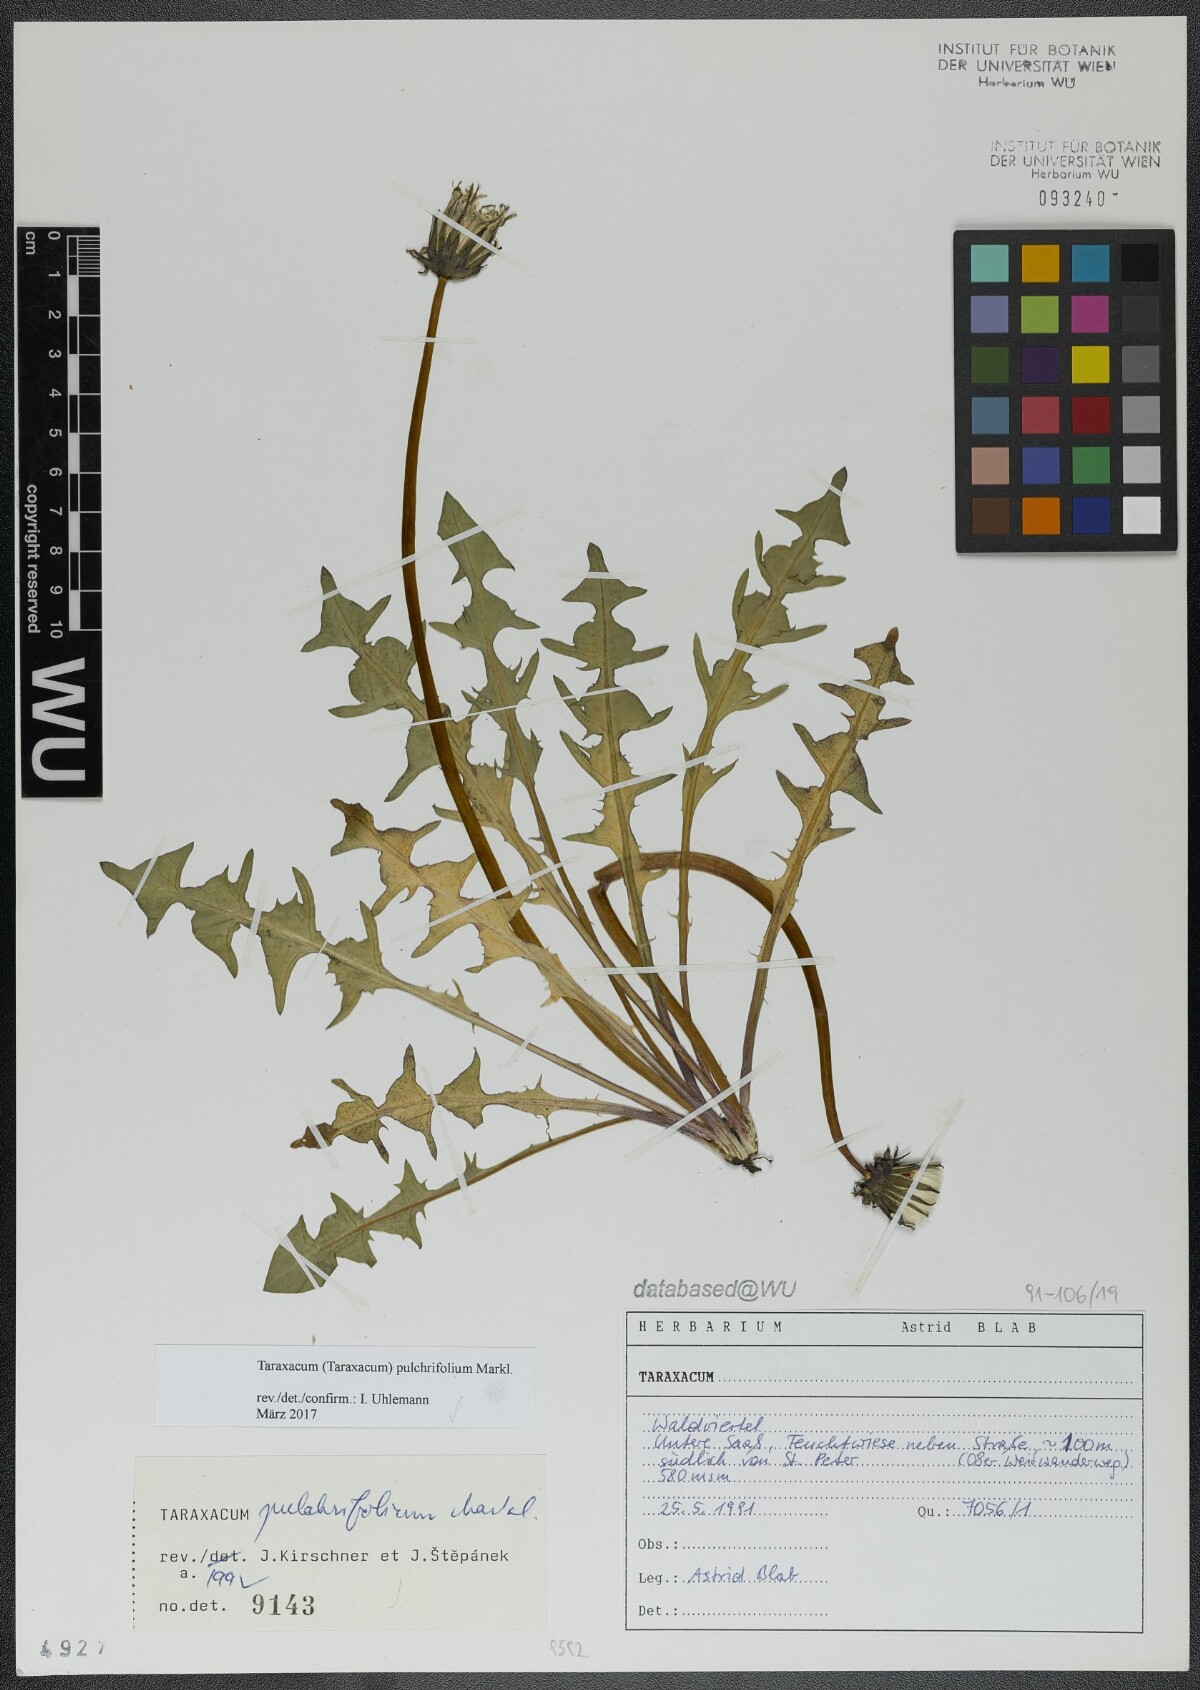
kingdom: Plantae
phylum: Tracheophyta
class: Magnoliopsida
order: Asterales
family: Asteraceae
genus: Taraxacum
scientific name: Taraxacum pulchrifolium
